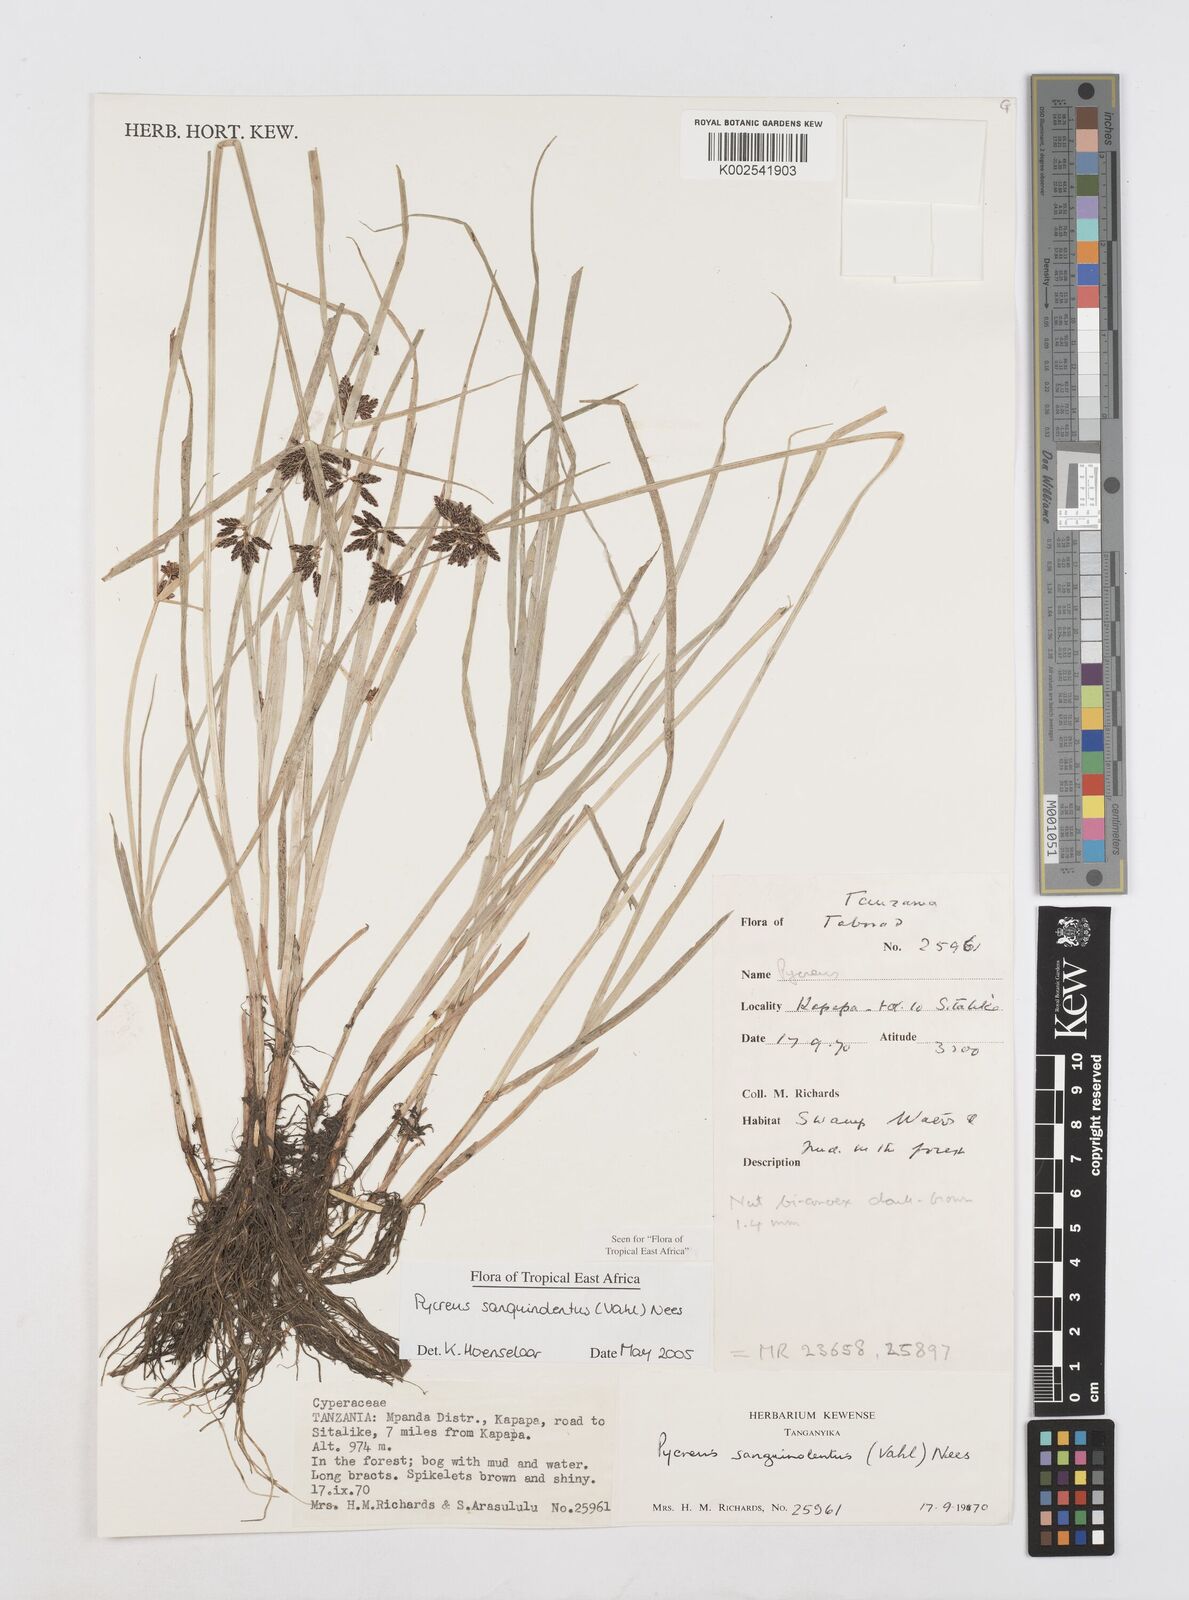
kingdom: Plantae
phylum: Tracheophyta
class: Liliopsida
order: Poales
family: Cyperaceae
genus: Cyperus
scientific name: Cyperus sanguinolentus
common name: Purpleglume flatsedge
